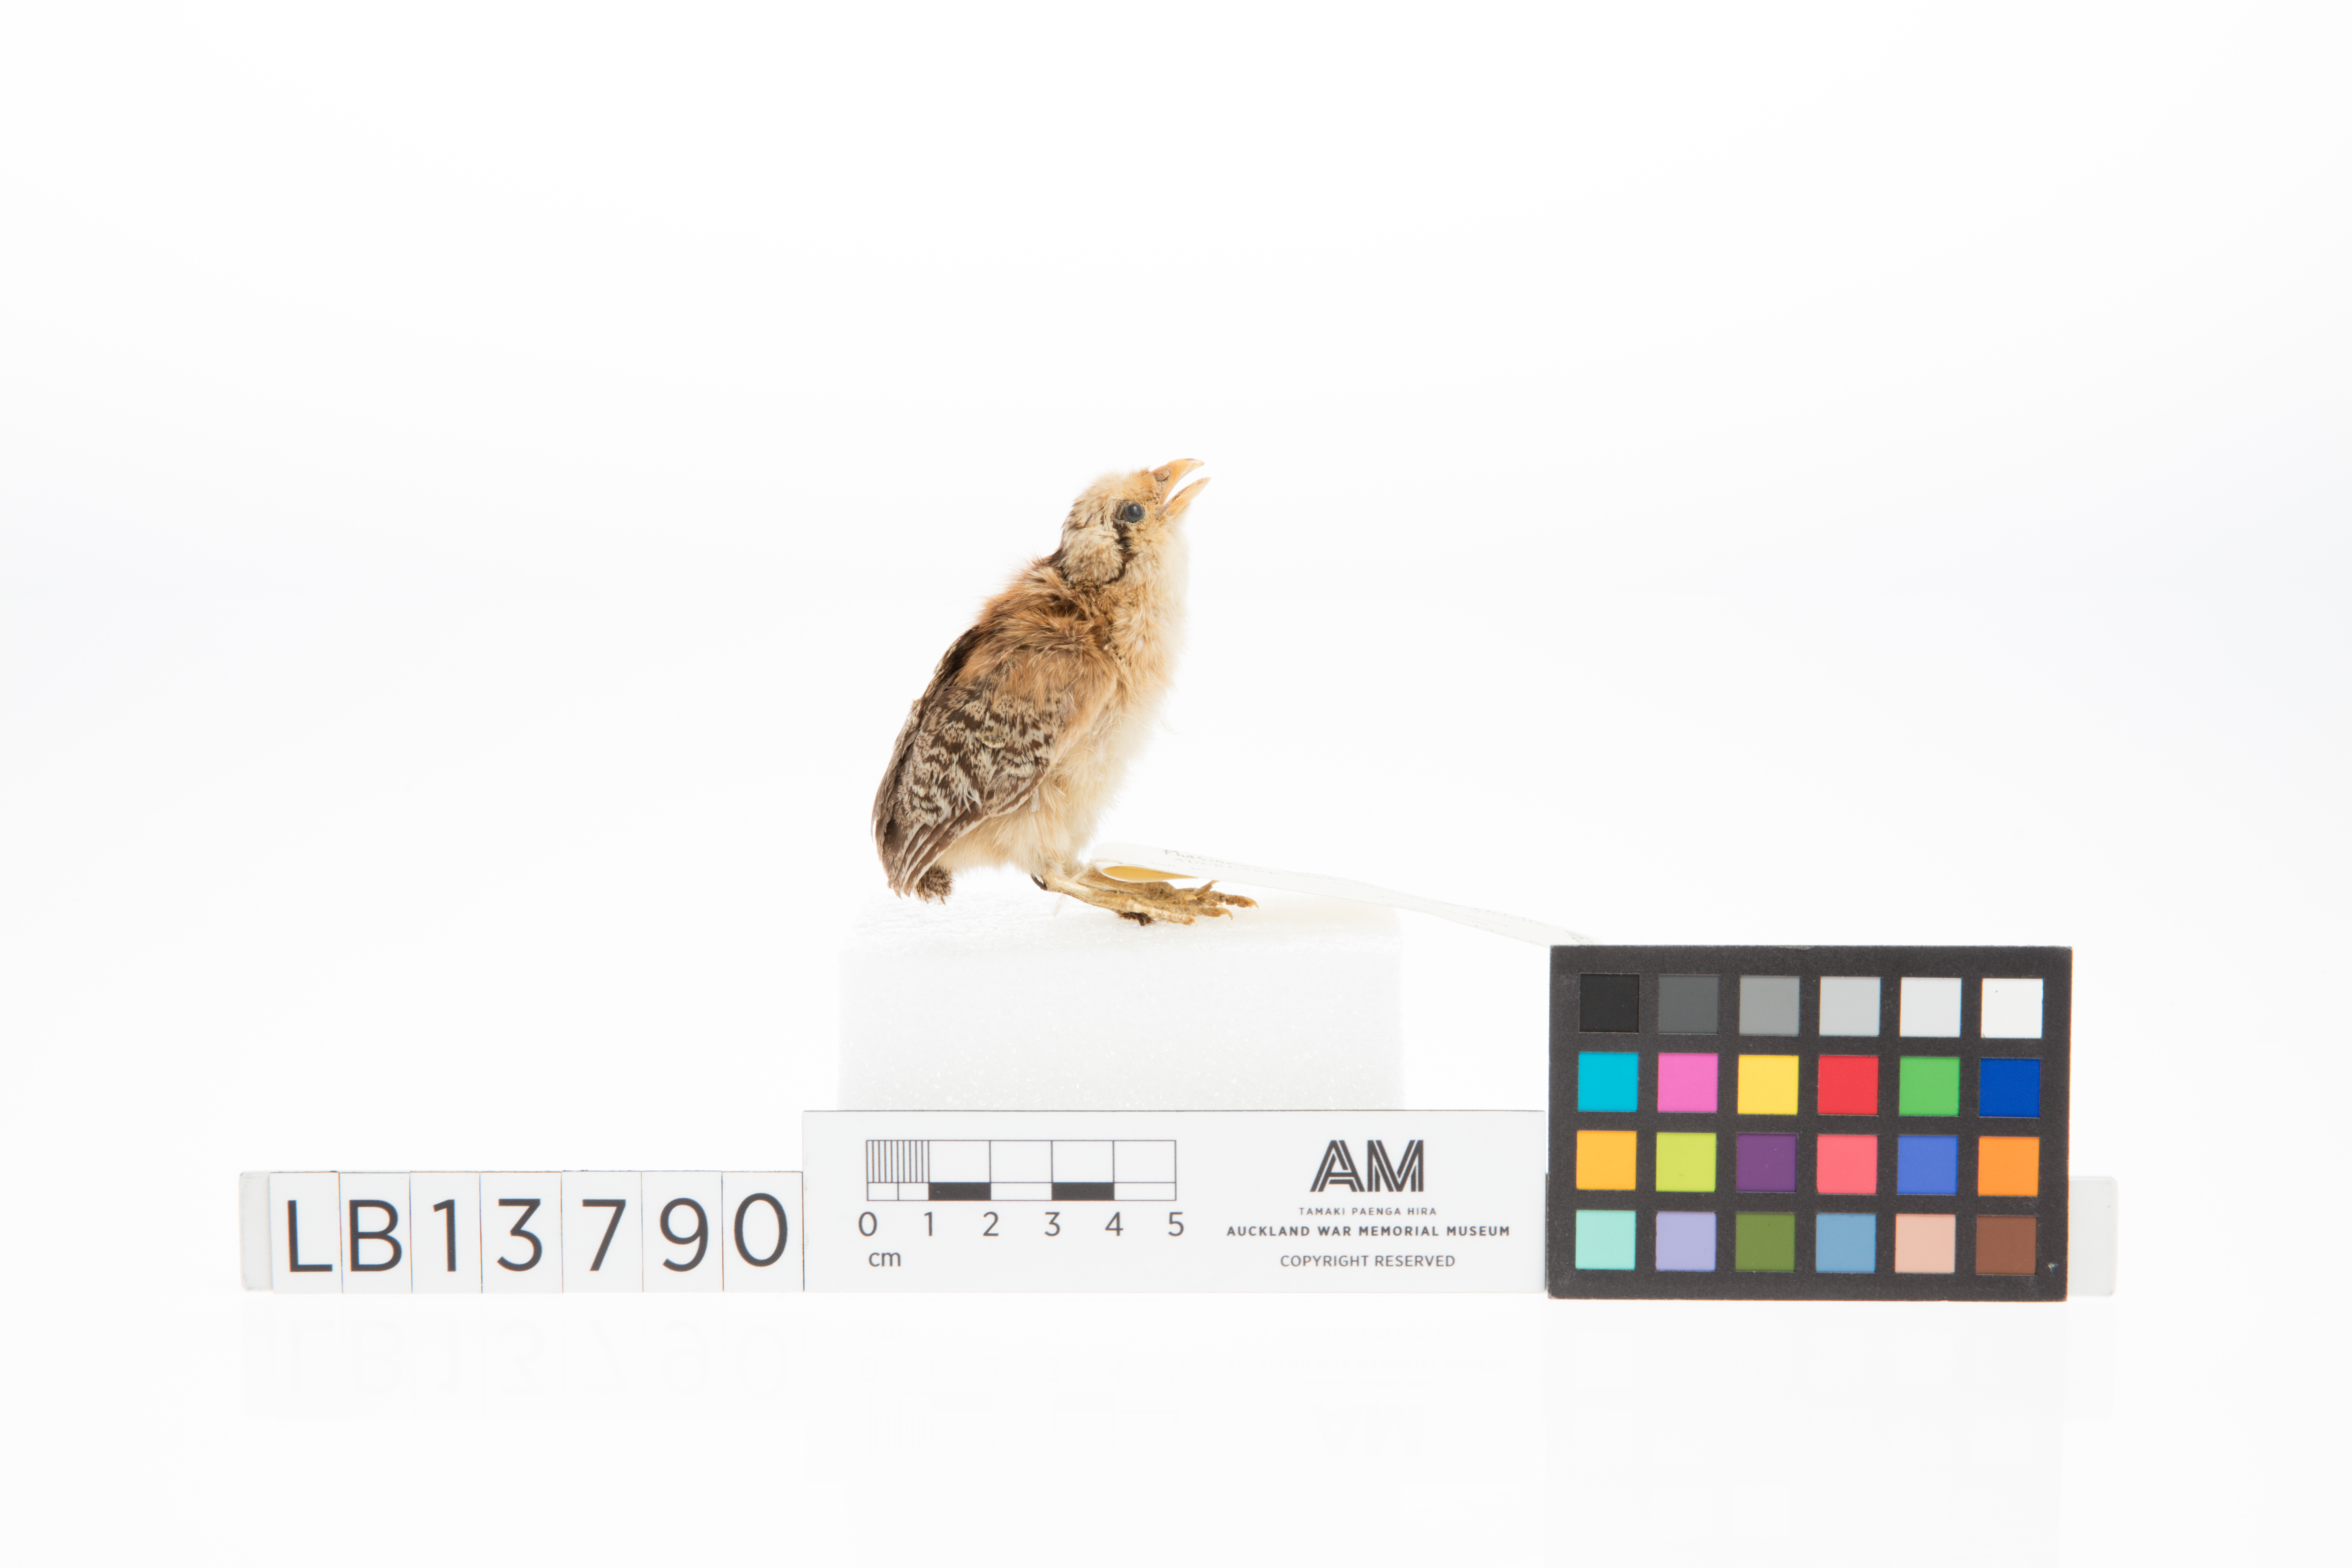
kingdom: Animalia
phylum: Chordata
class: Aves
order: Galliformes
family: Phasianidae
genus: Phasianus
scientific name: Phasianus colchicus
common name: Common pheasant
